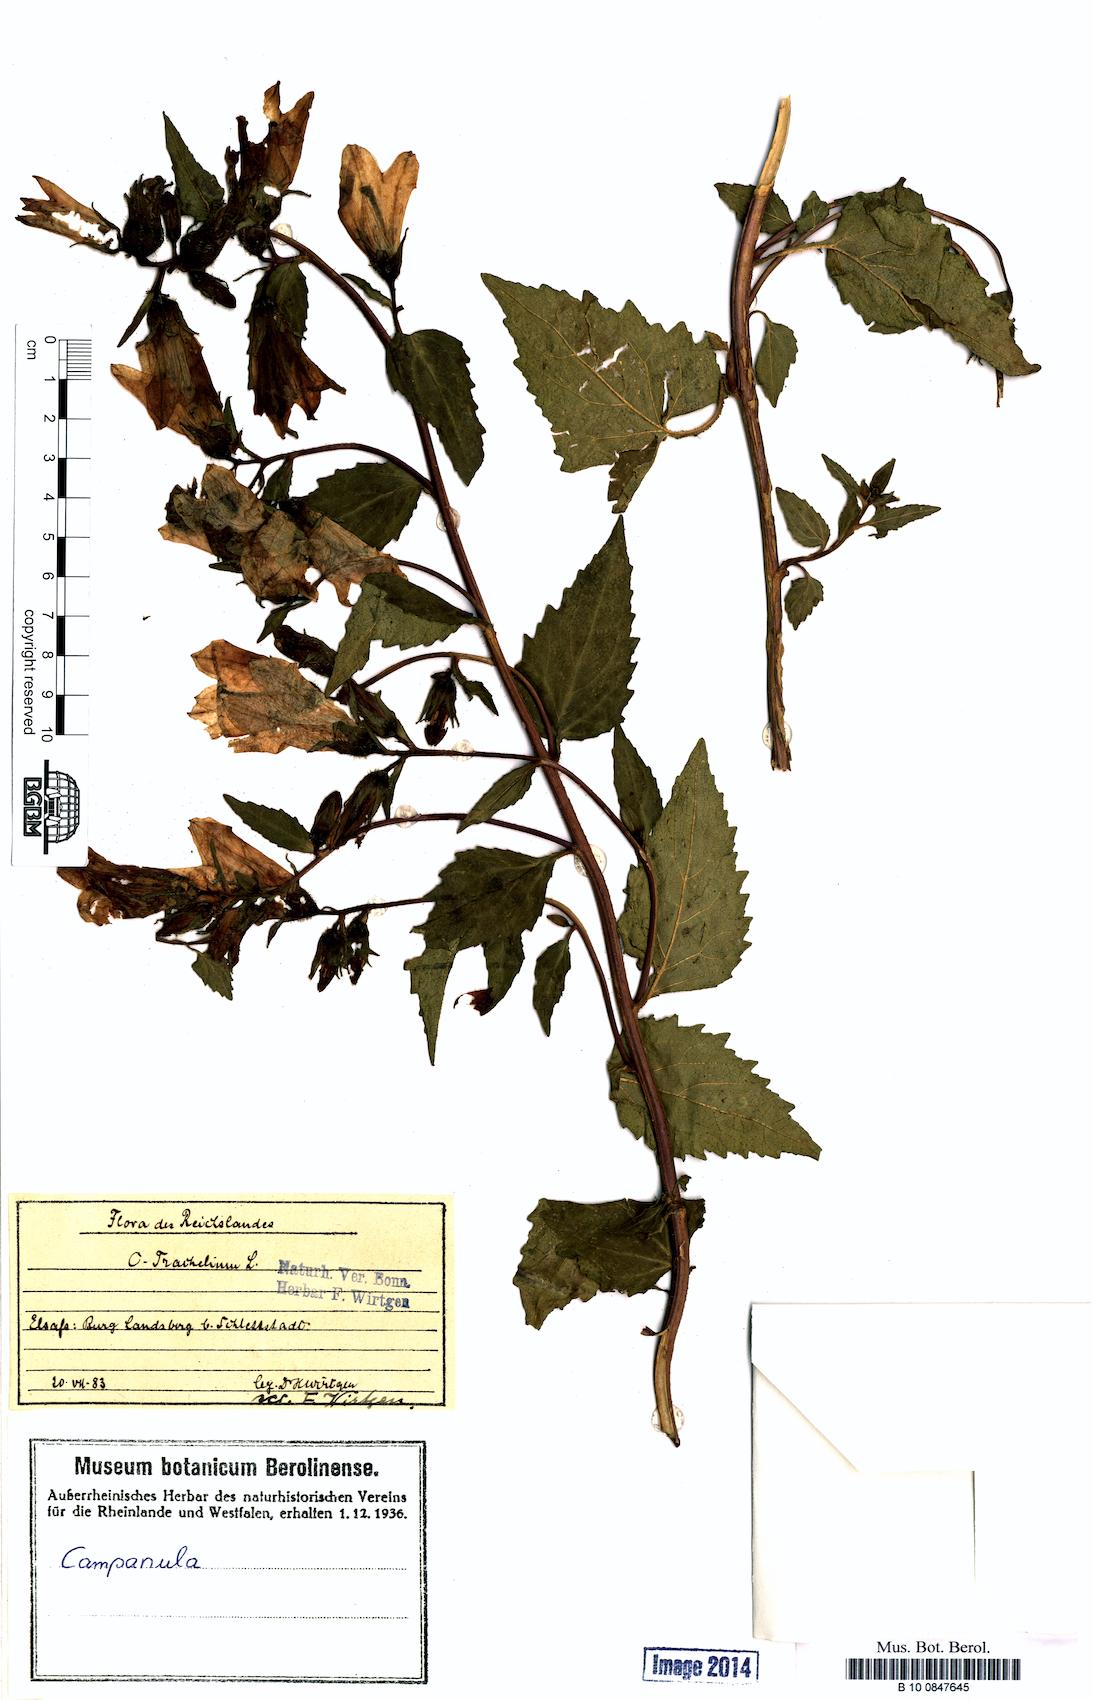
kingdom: Plantae
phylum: Tracheophyta
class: Magnoliopsida
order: Asterales
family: Campanulaceae
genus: Campanula
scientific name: Campanula trachelium
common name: Nettle-leaved bellflower
